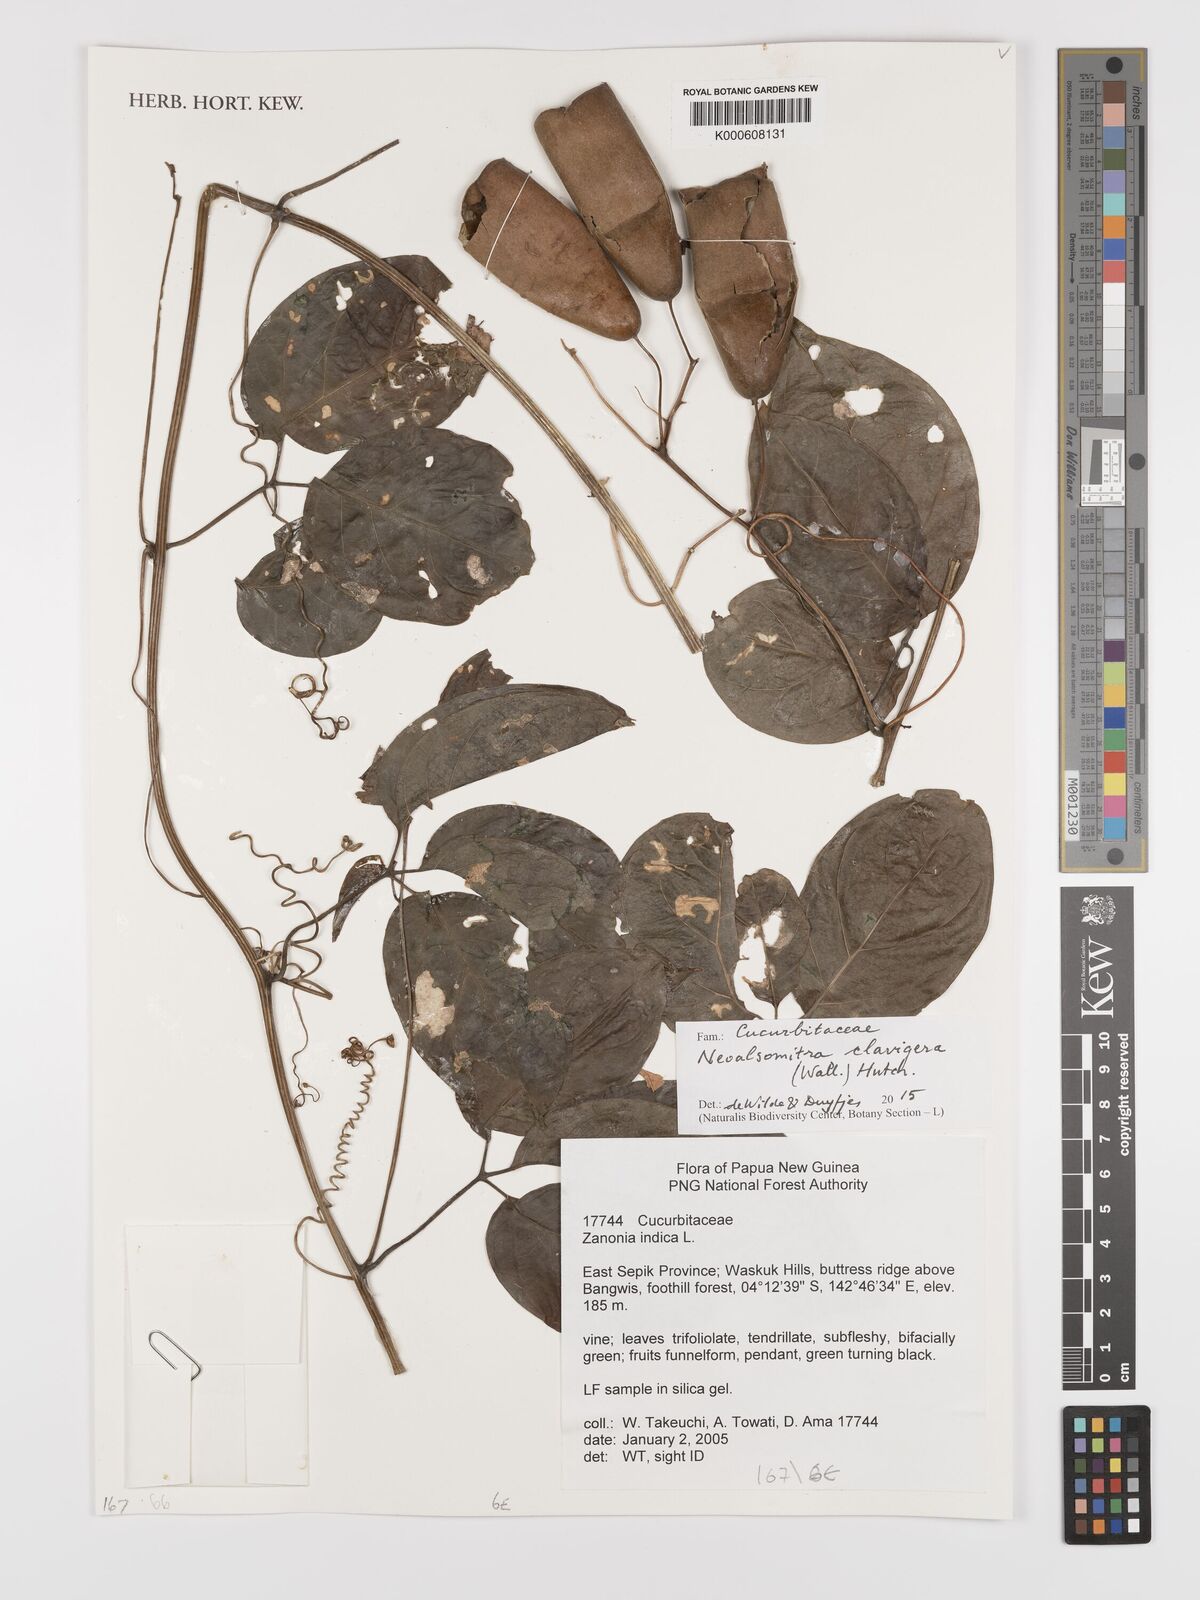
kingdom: Plantae
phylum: Tracheophyta
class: Magnoliopsida
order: Cucurbitales
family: Cucurbitaceae
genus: Neoalsomitra
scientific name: Neoalsomitra clavigera
